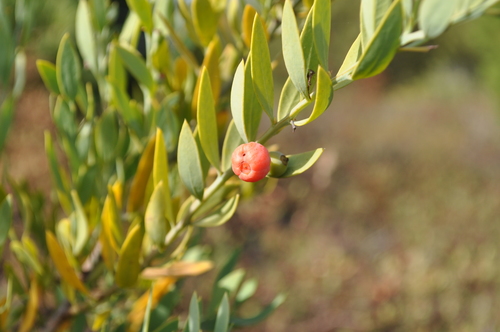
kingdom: Plantae
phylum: Tracheophyta
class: Magnoliopsida
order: Santalales
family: Santalaceae
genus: Osyris
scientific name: Osyris lanceolata
